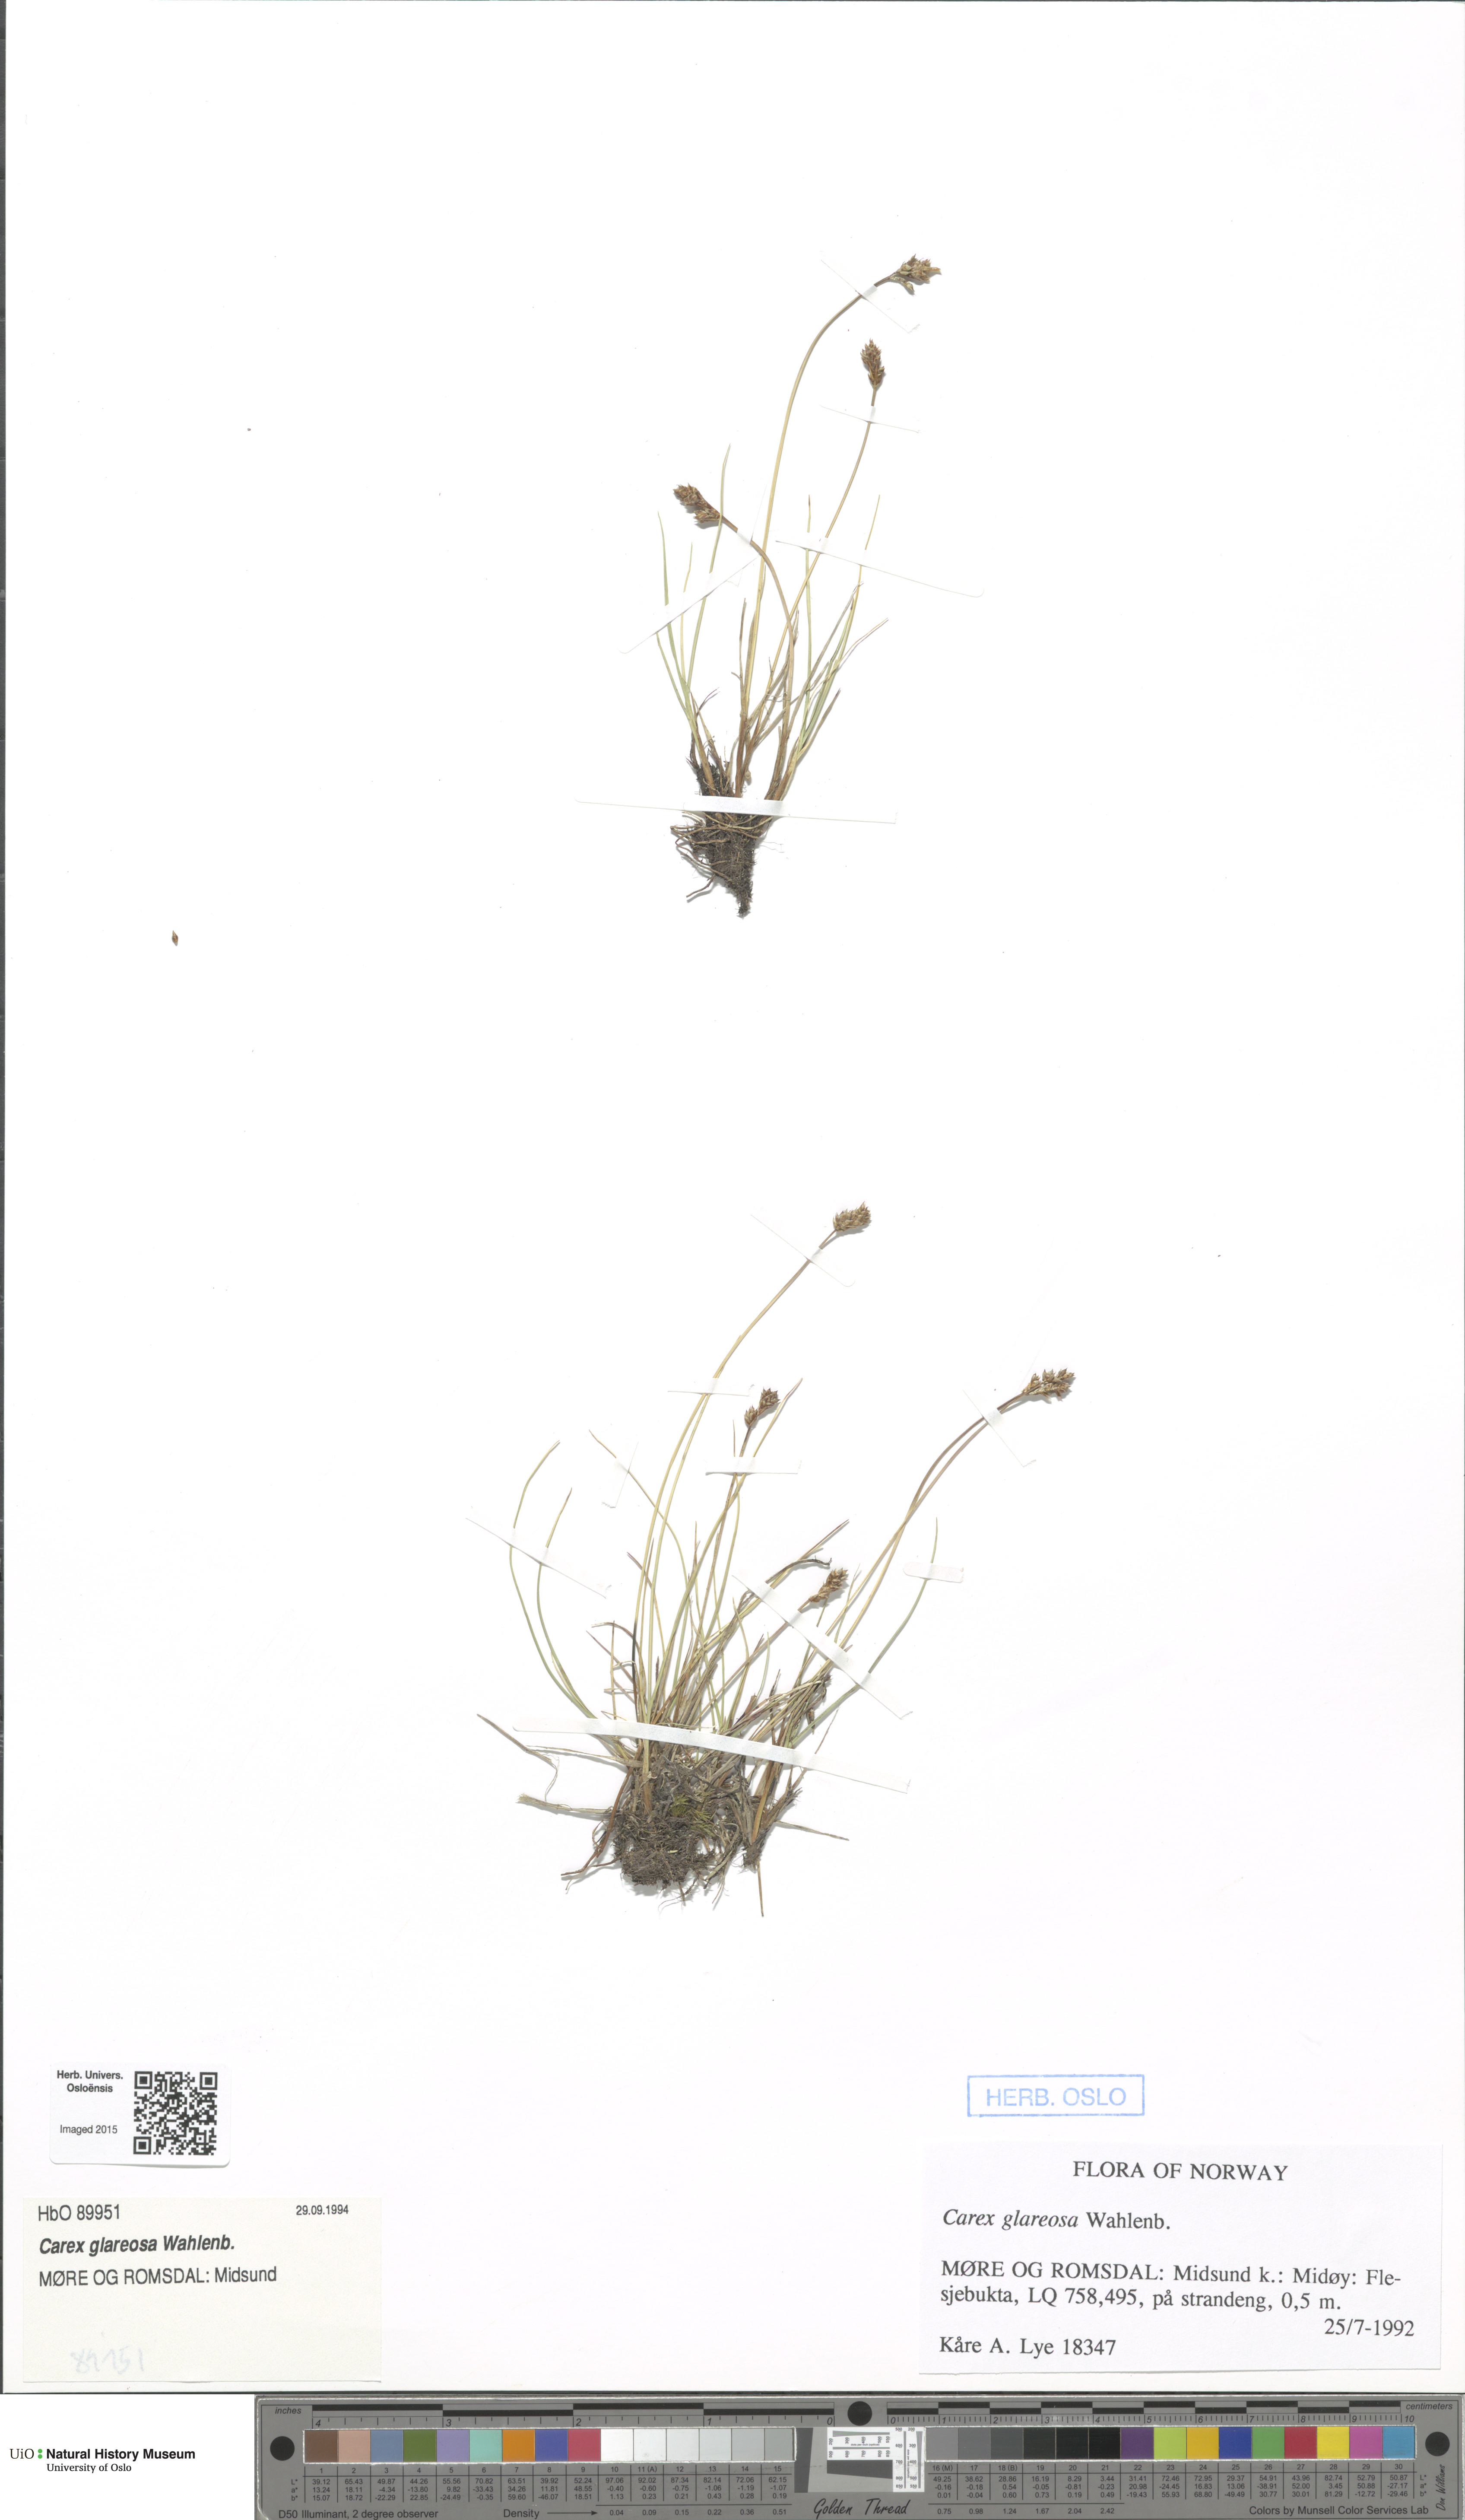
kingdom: Plantae
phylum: Tracheophyta
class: Liliopsida
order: Poales
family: Cyperaceae
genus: Carex
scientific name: Carex glareosa
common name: Clustered sedge
